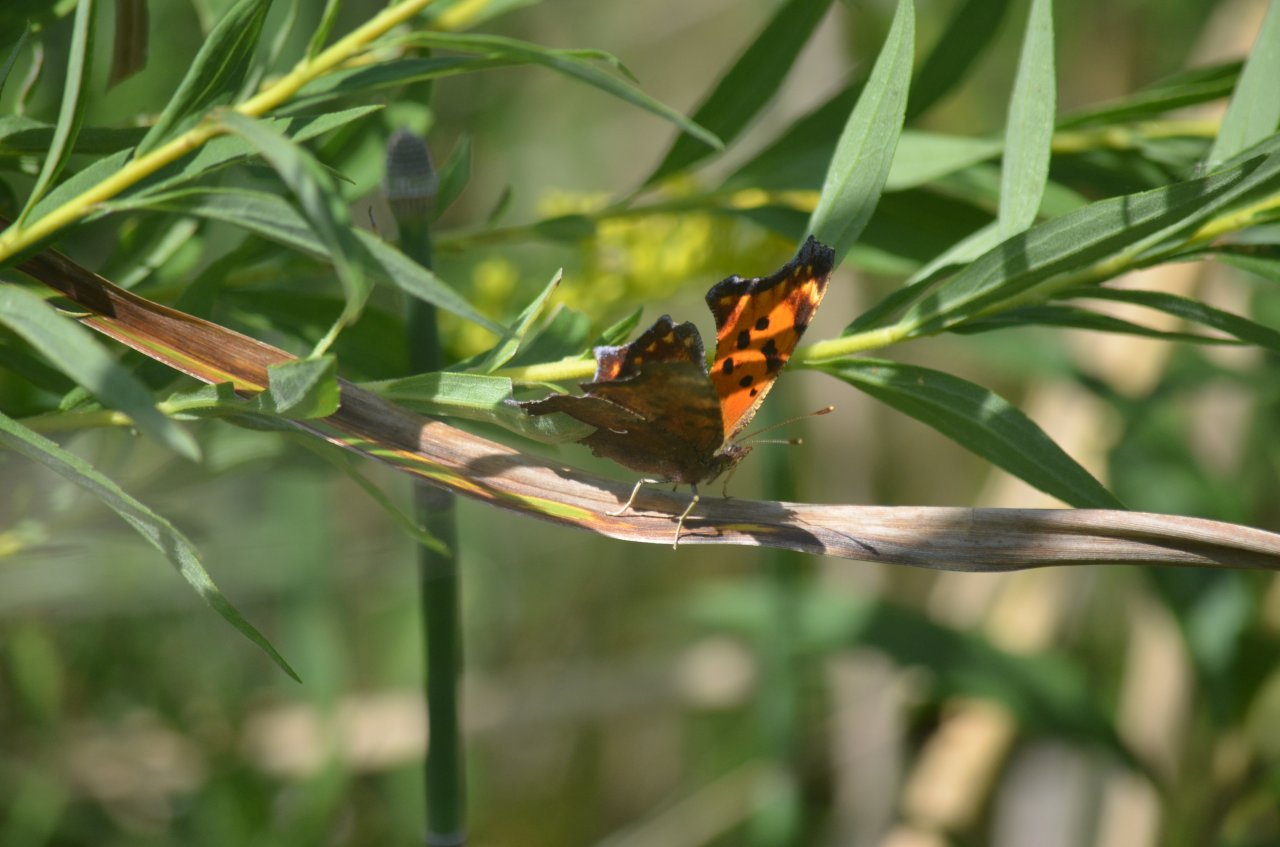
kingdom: Animalia
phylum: Arthropoda
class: Insecta
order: Lepidoptera
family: Nymphalidae
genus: Polygonia
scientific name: Polygonia comma
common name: Eastern Comma
